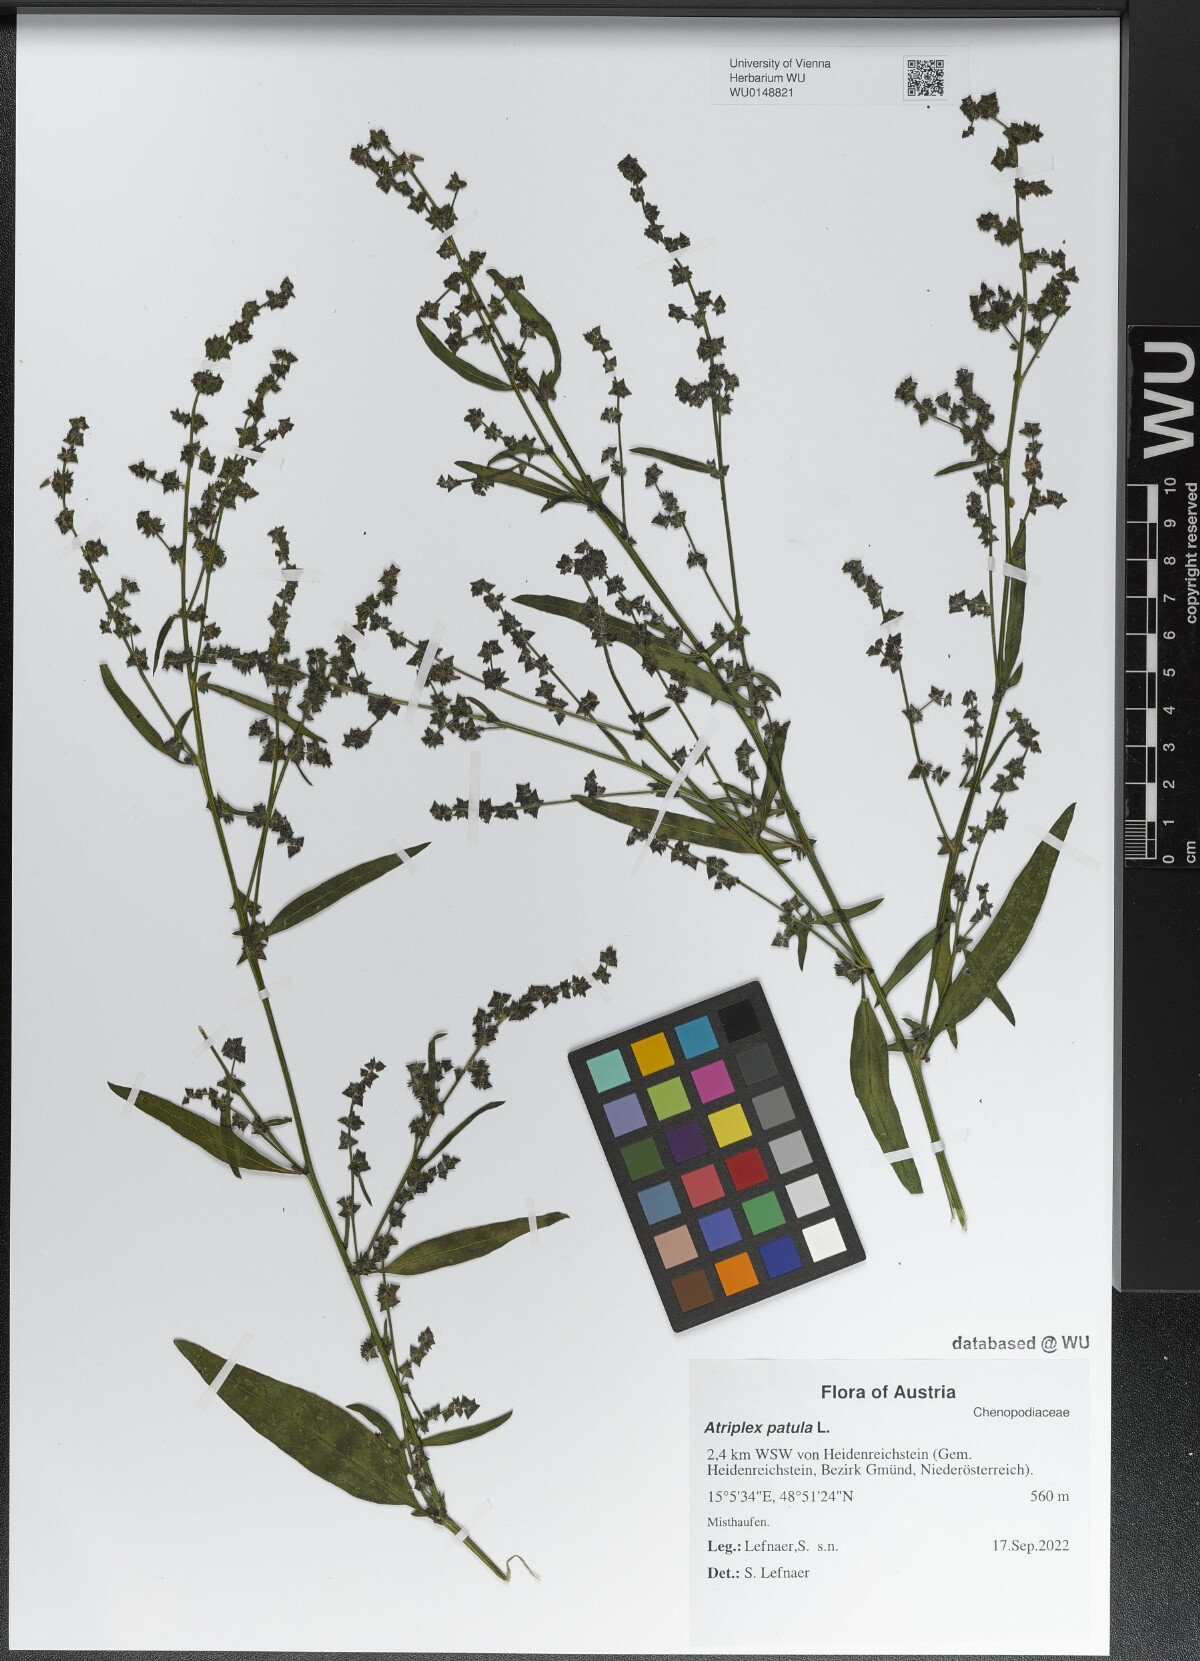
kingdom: Plantae
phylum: Tracheophyta
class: Magnoliopsida
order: Caryophyllales
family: Amaranthaceae
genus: Atriplex
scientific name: Atriplex patula
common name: Common orache
